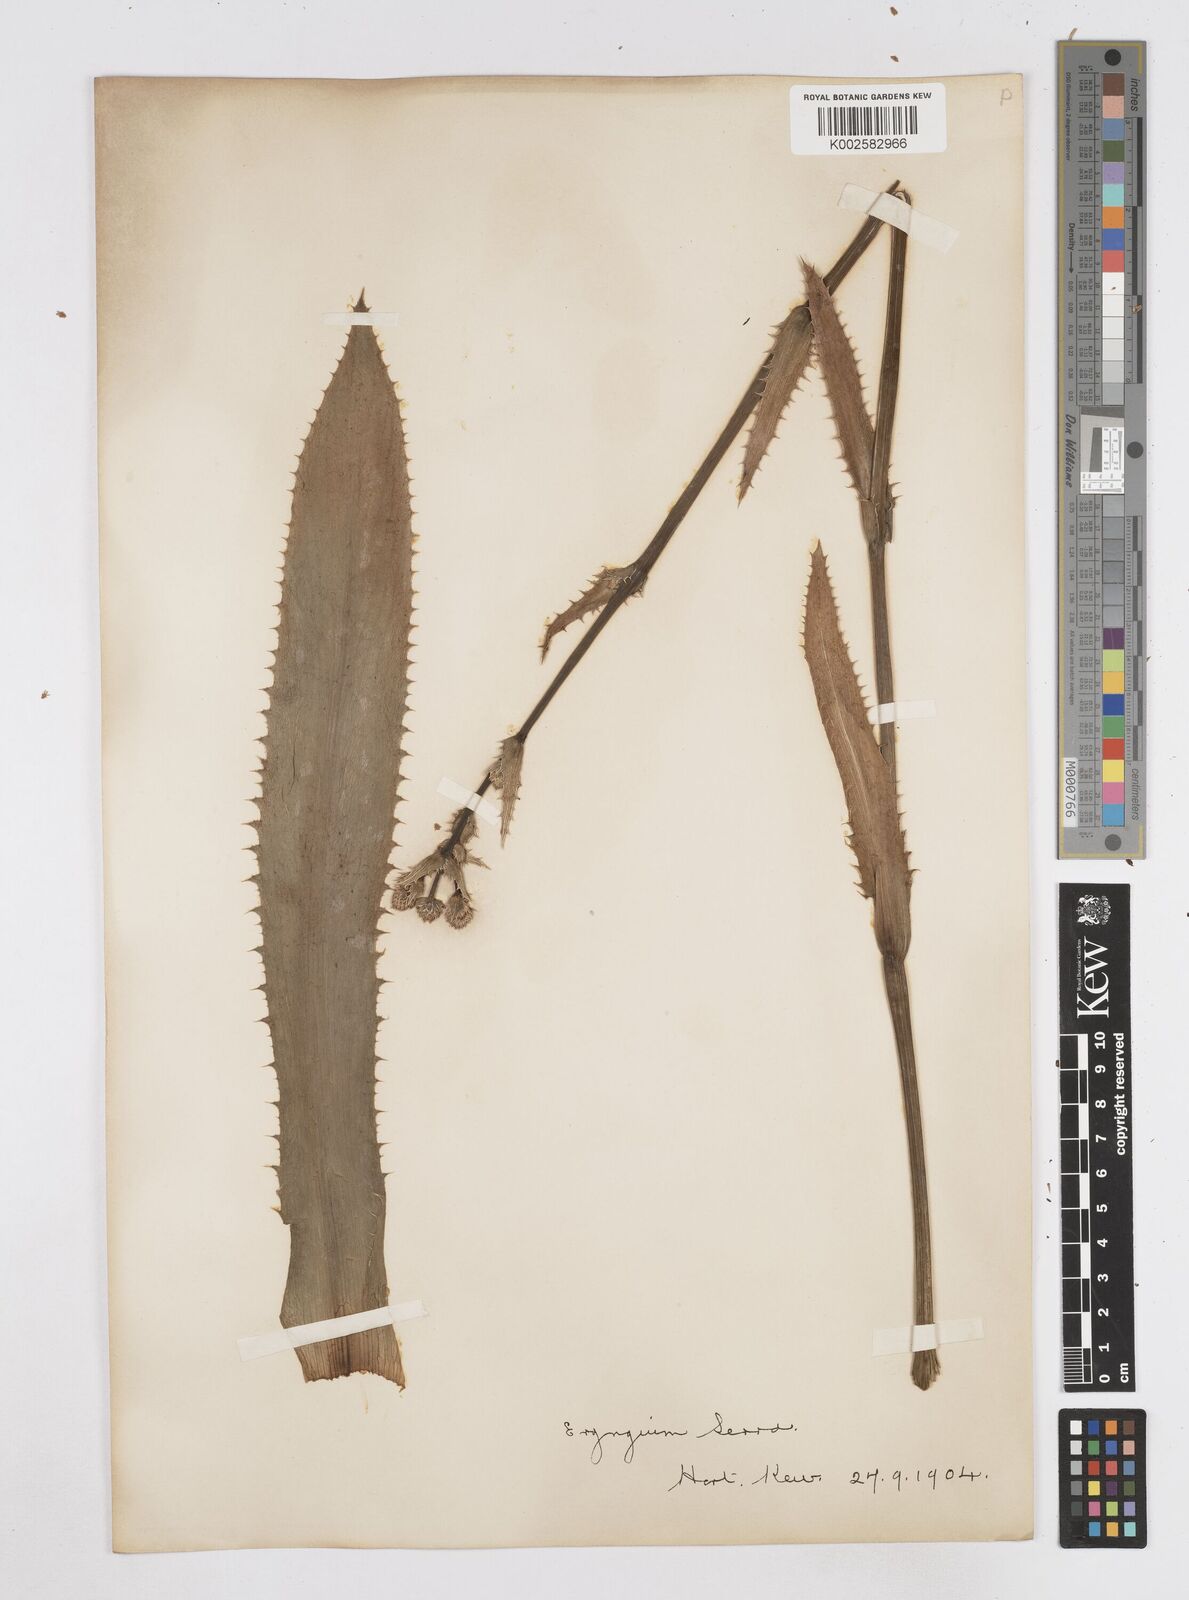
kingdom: Plantae
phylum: Tracheophyta
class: Magnoliopsida
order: Apiales
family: Apiaceae
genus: Eryngium
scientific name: Eryngium serra
